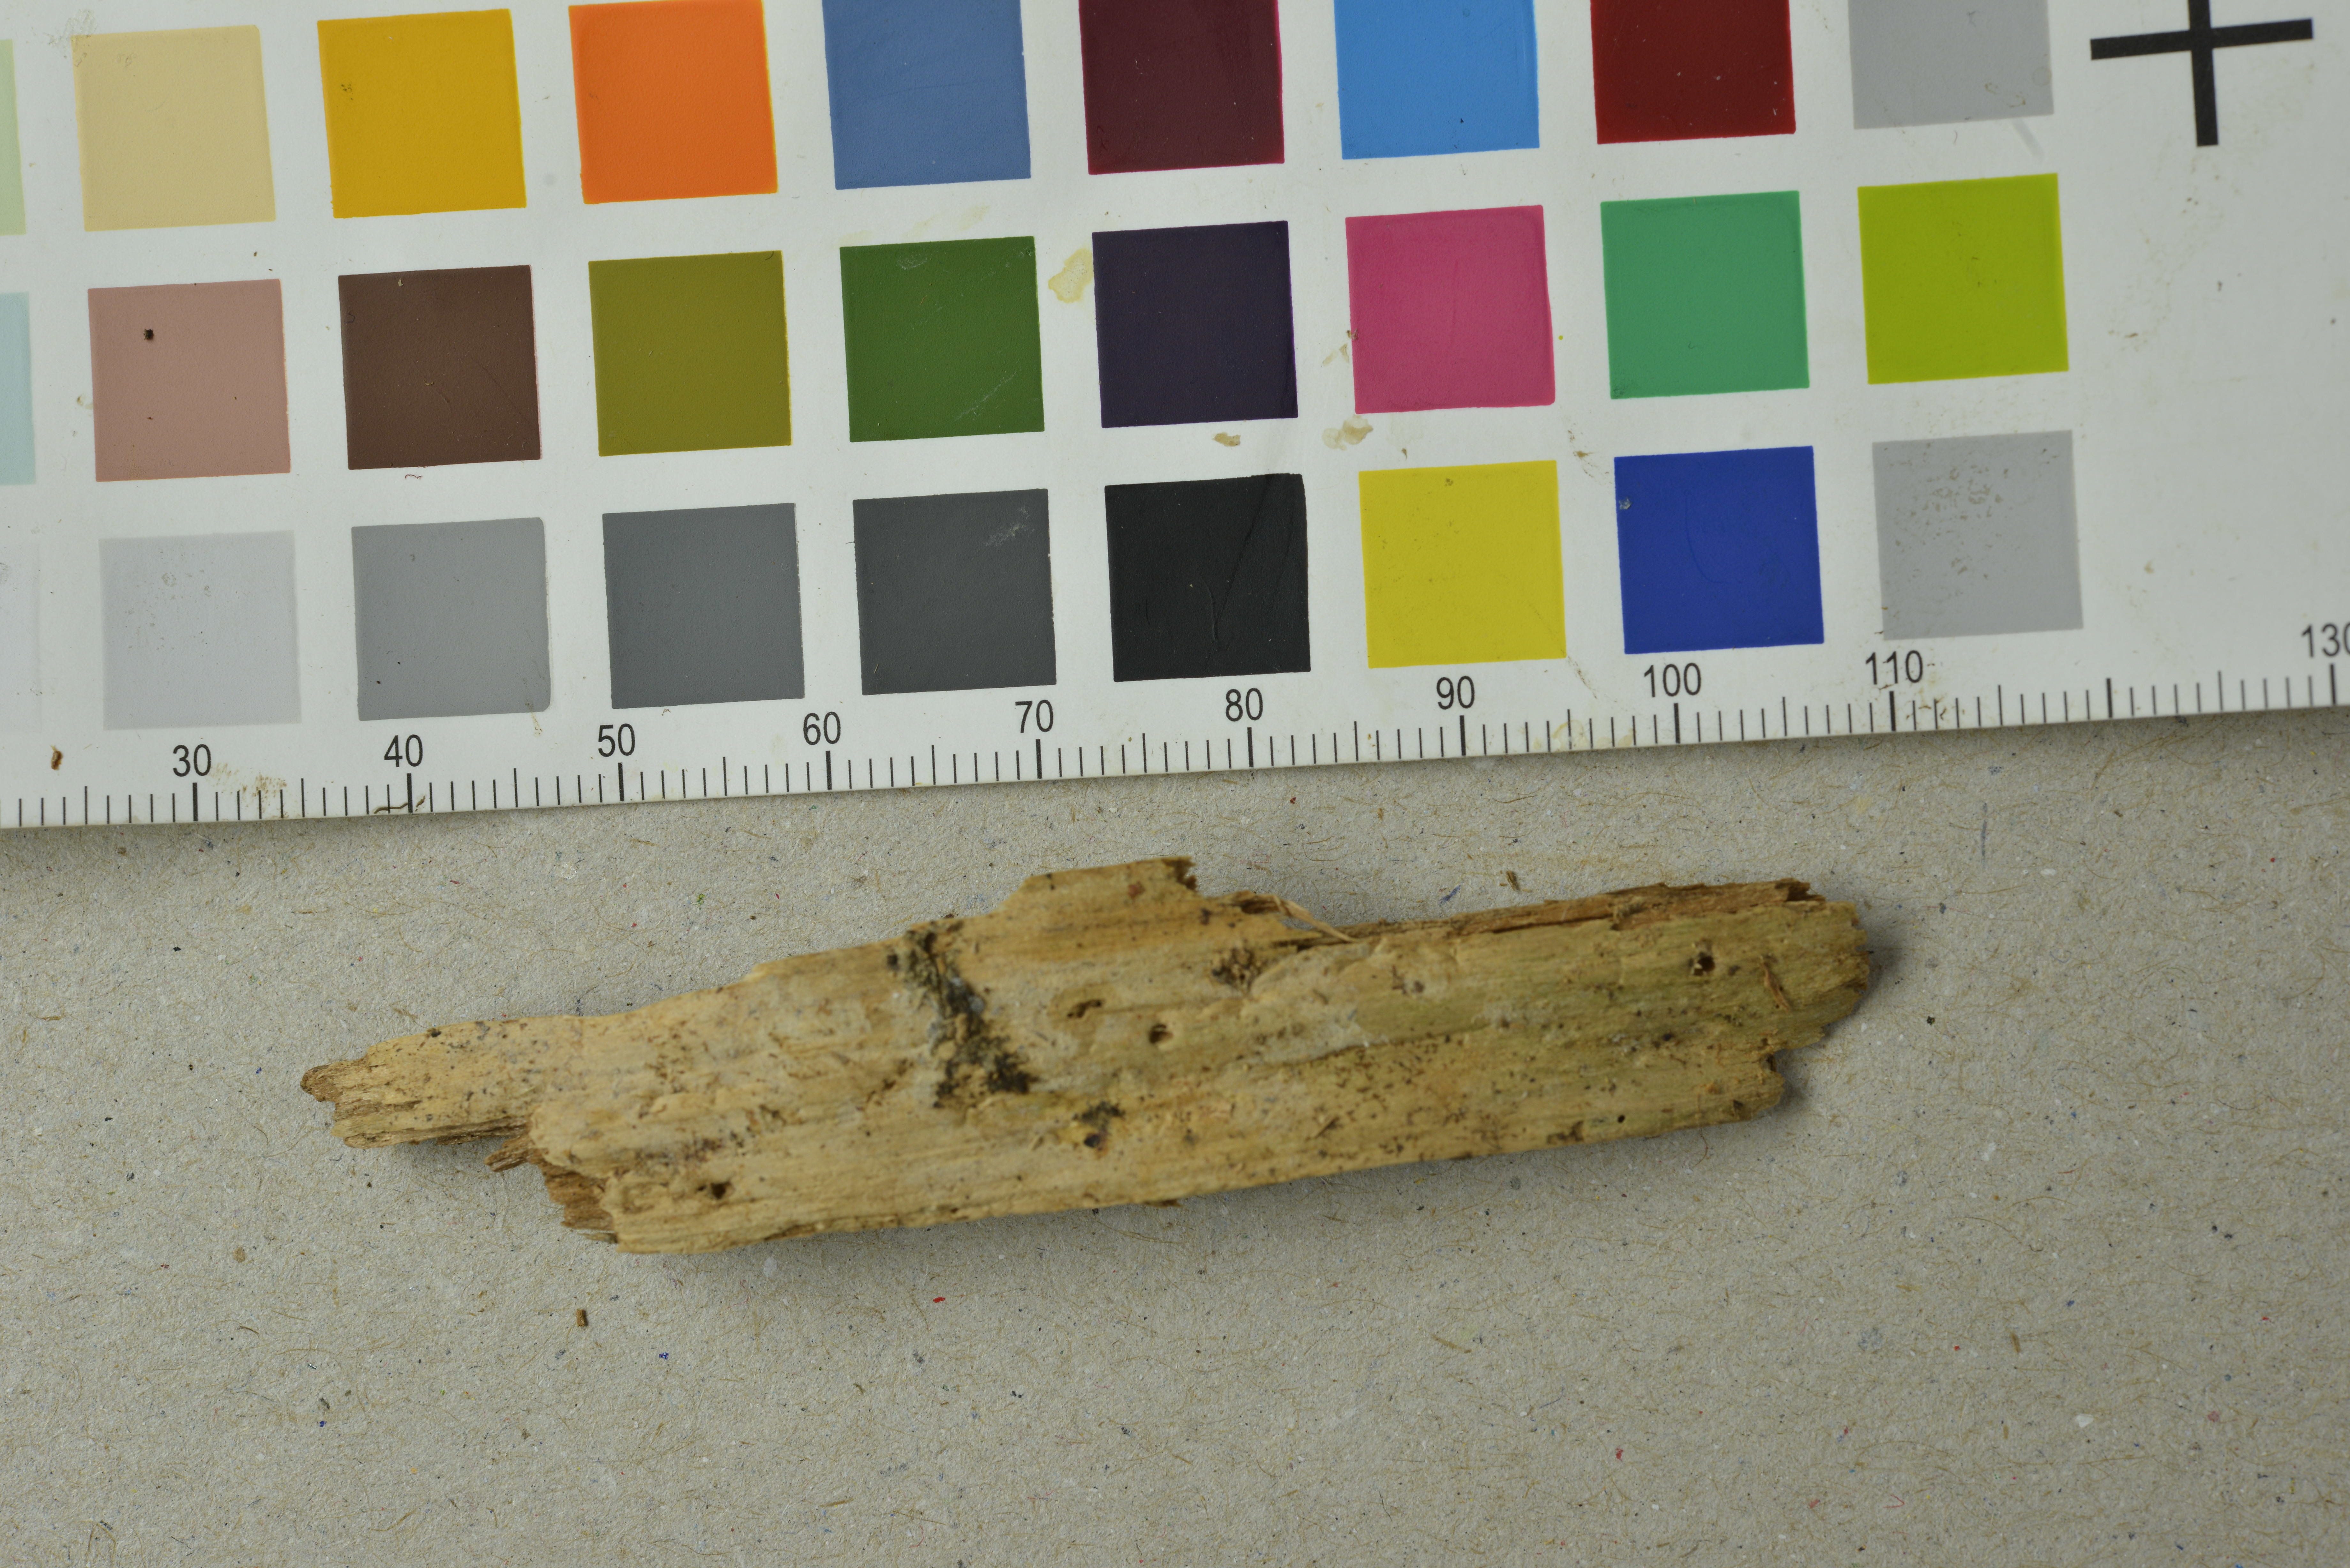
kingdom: Fungi
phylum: Basidiomycota
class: Agaricomycetes
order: Hymenochaetales
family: Repetobasidiaceae
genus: Lawrynomyces
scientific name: Lawrynomyces capitatus
